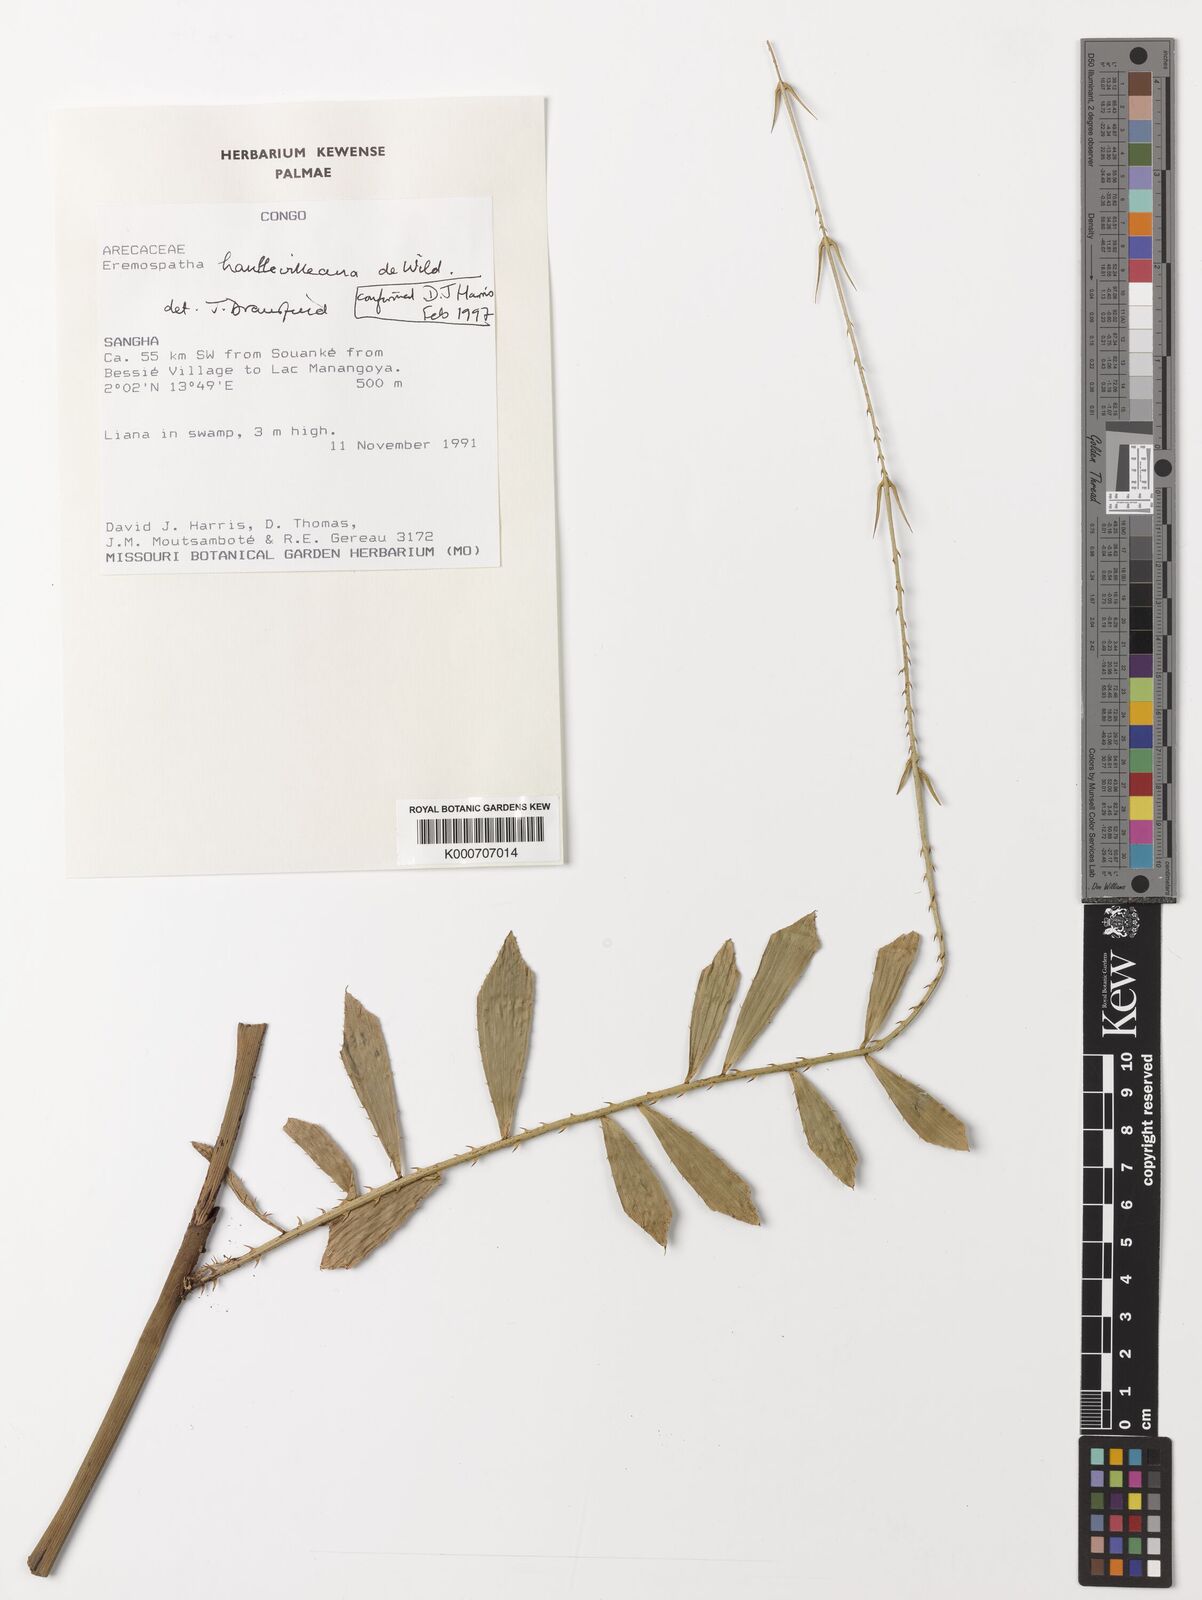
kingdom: Plantae
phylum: Tracheophyta
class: Liliopsida
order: Arecales
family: Arecaceae
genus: Eremospatha
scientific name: Eremospatha haullevilleana
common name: Rattan
